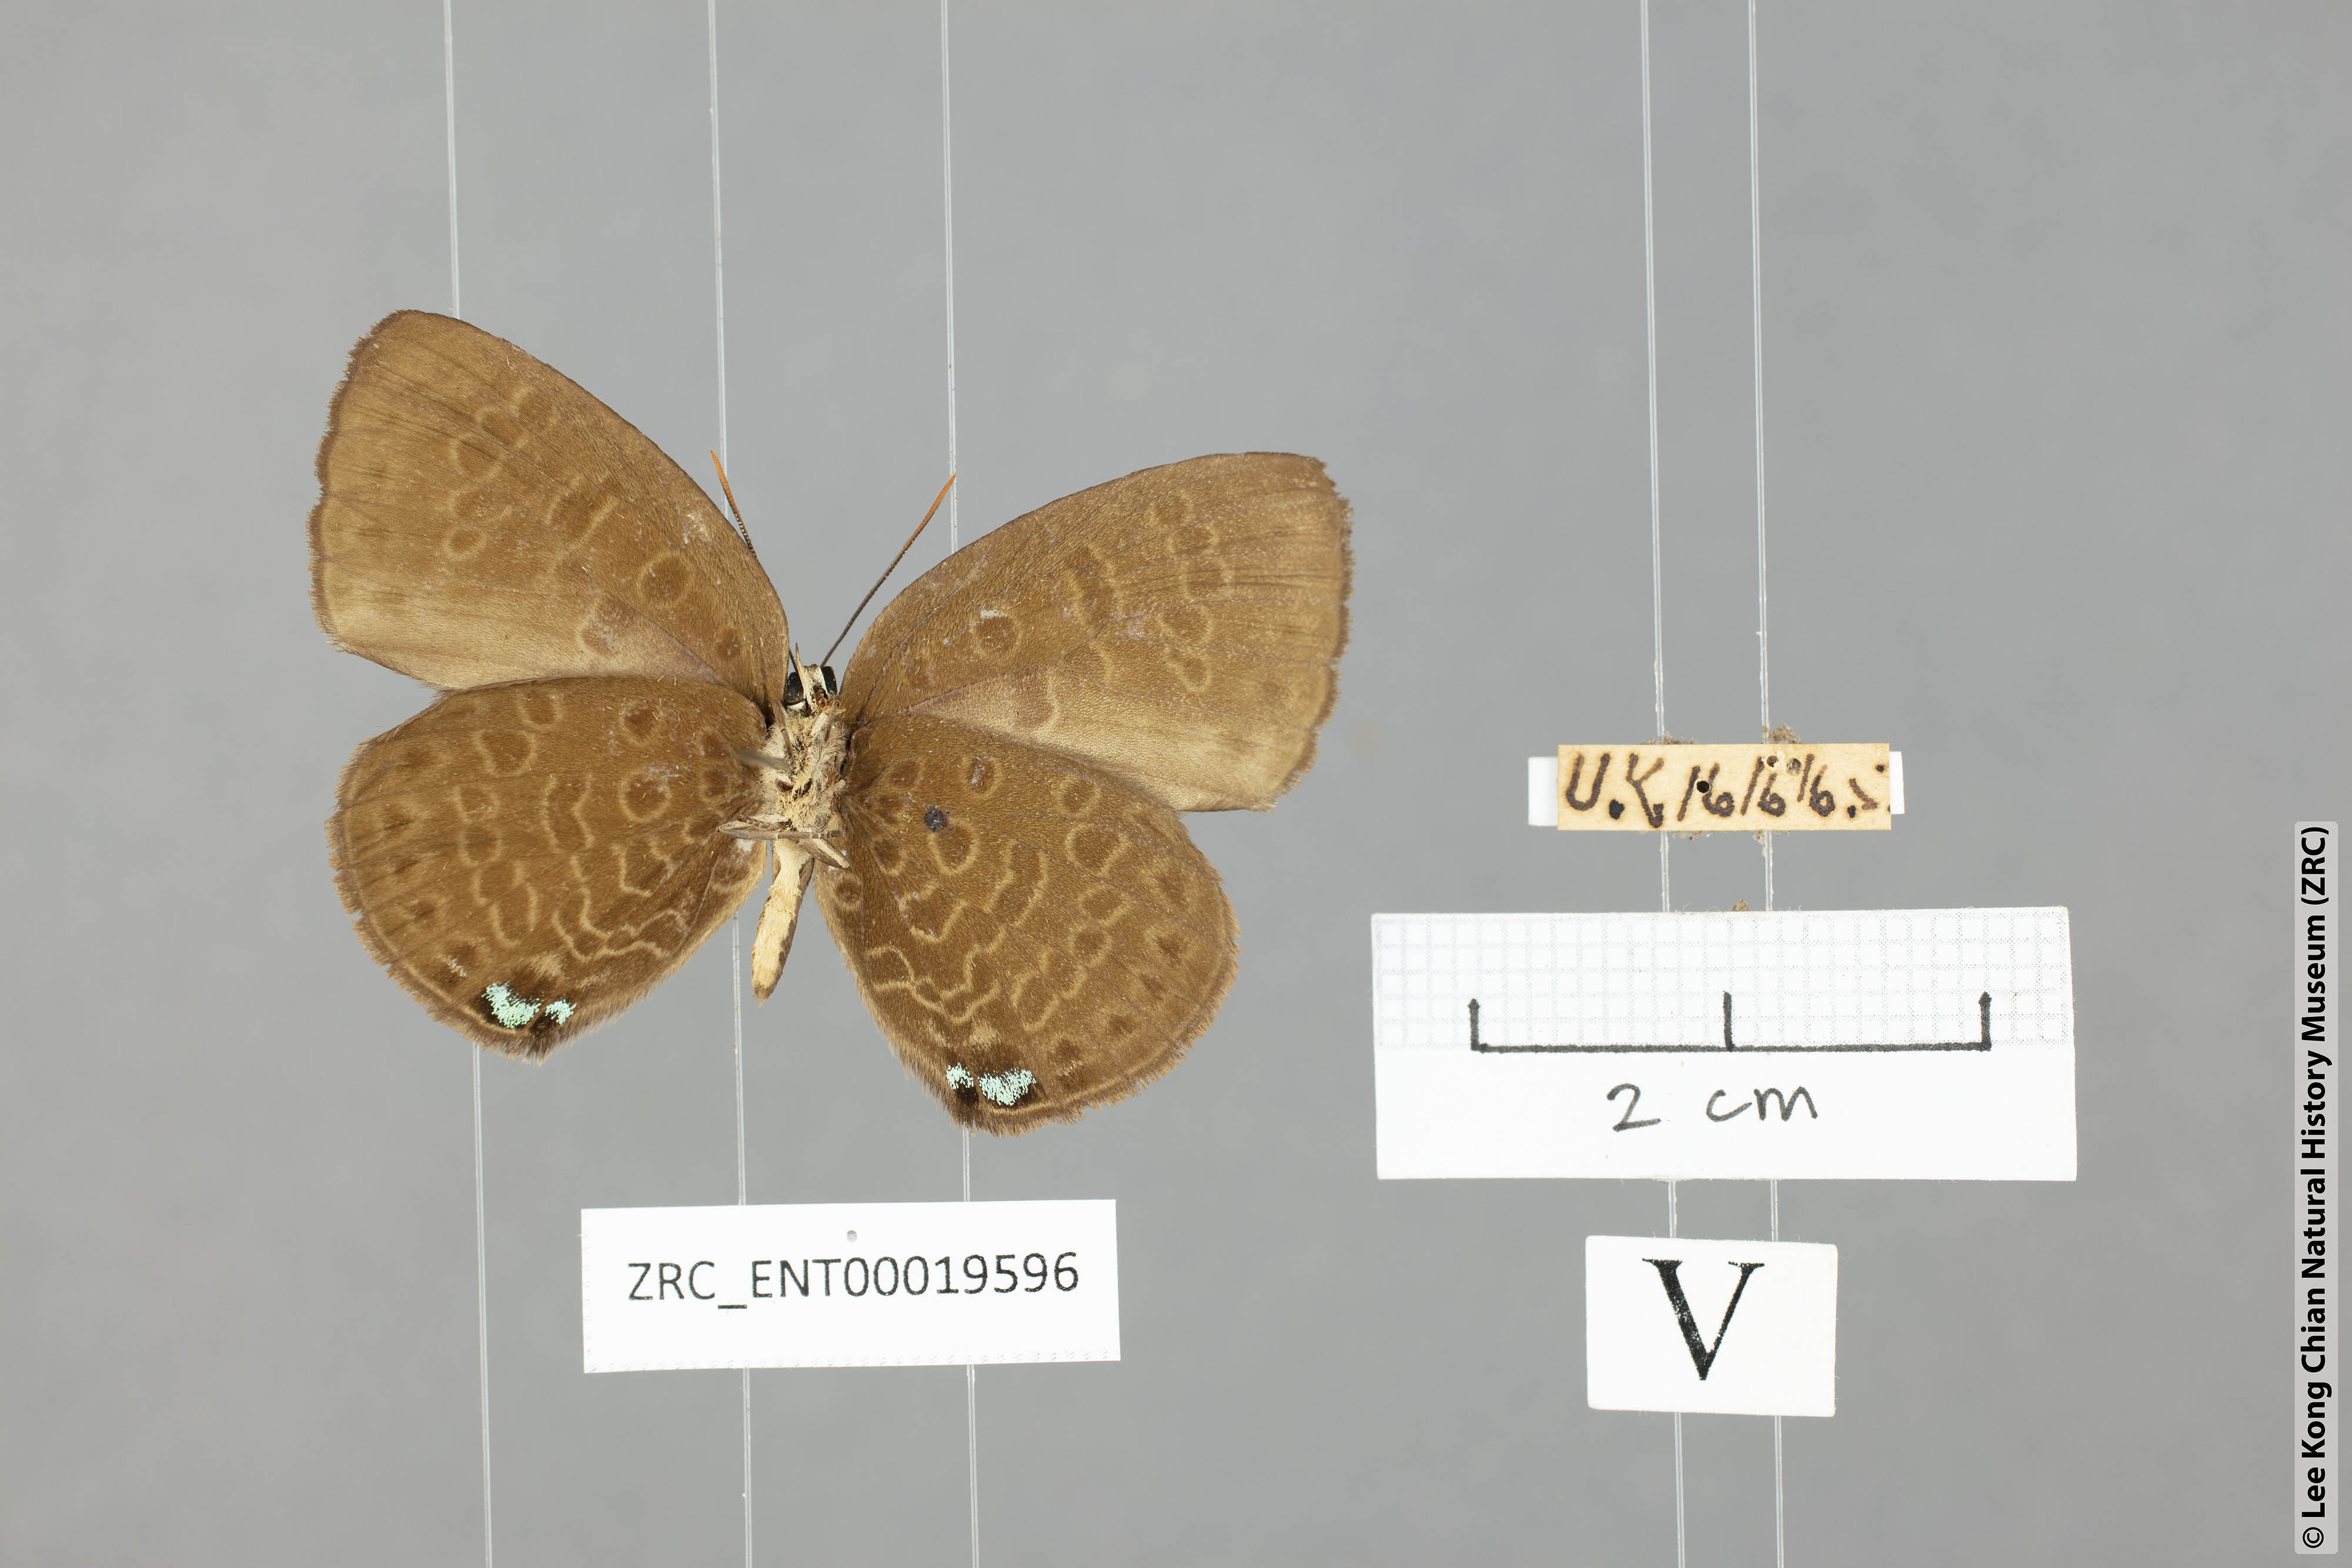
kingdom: Animalia
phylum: Arthropoda
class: Insecta
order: Lepidoptera
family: Lycaenidae
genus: Arhopala
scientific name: Arhopala kurzi
